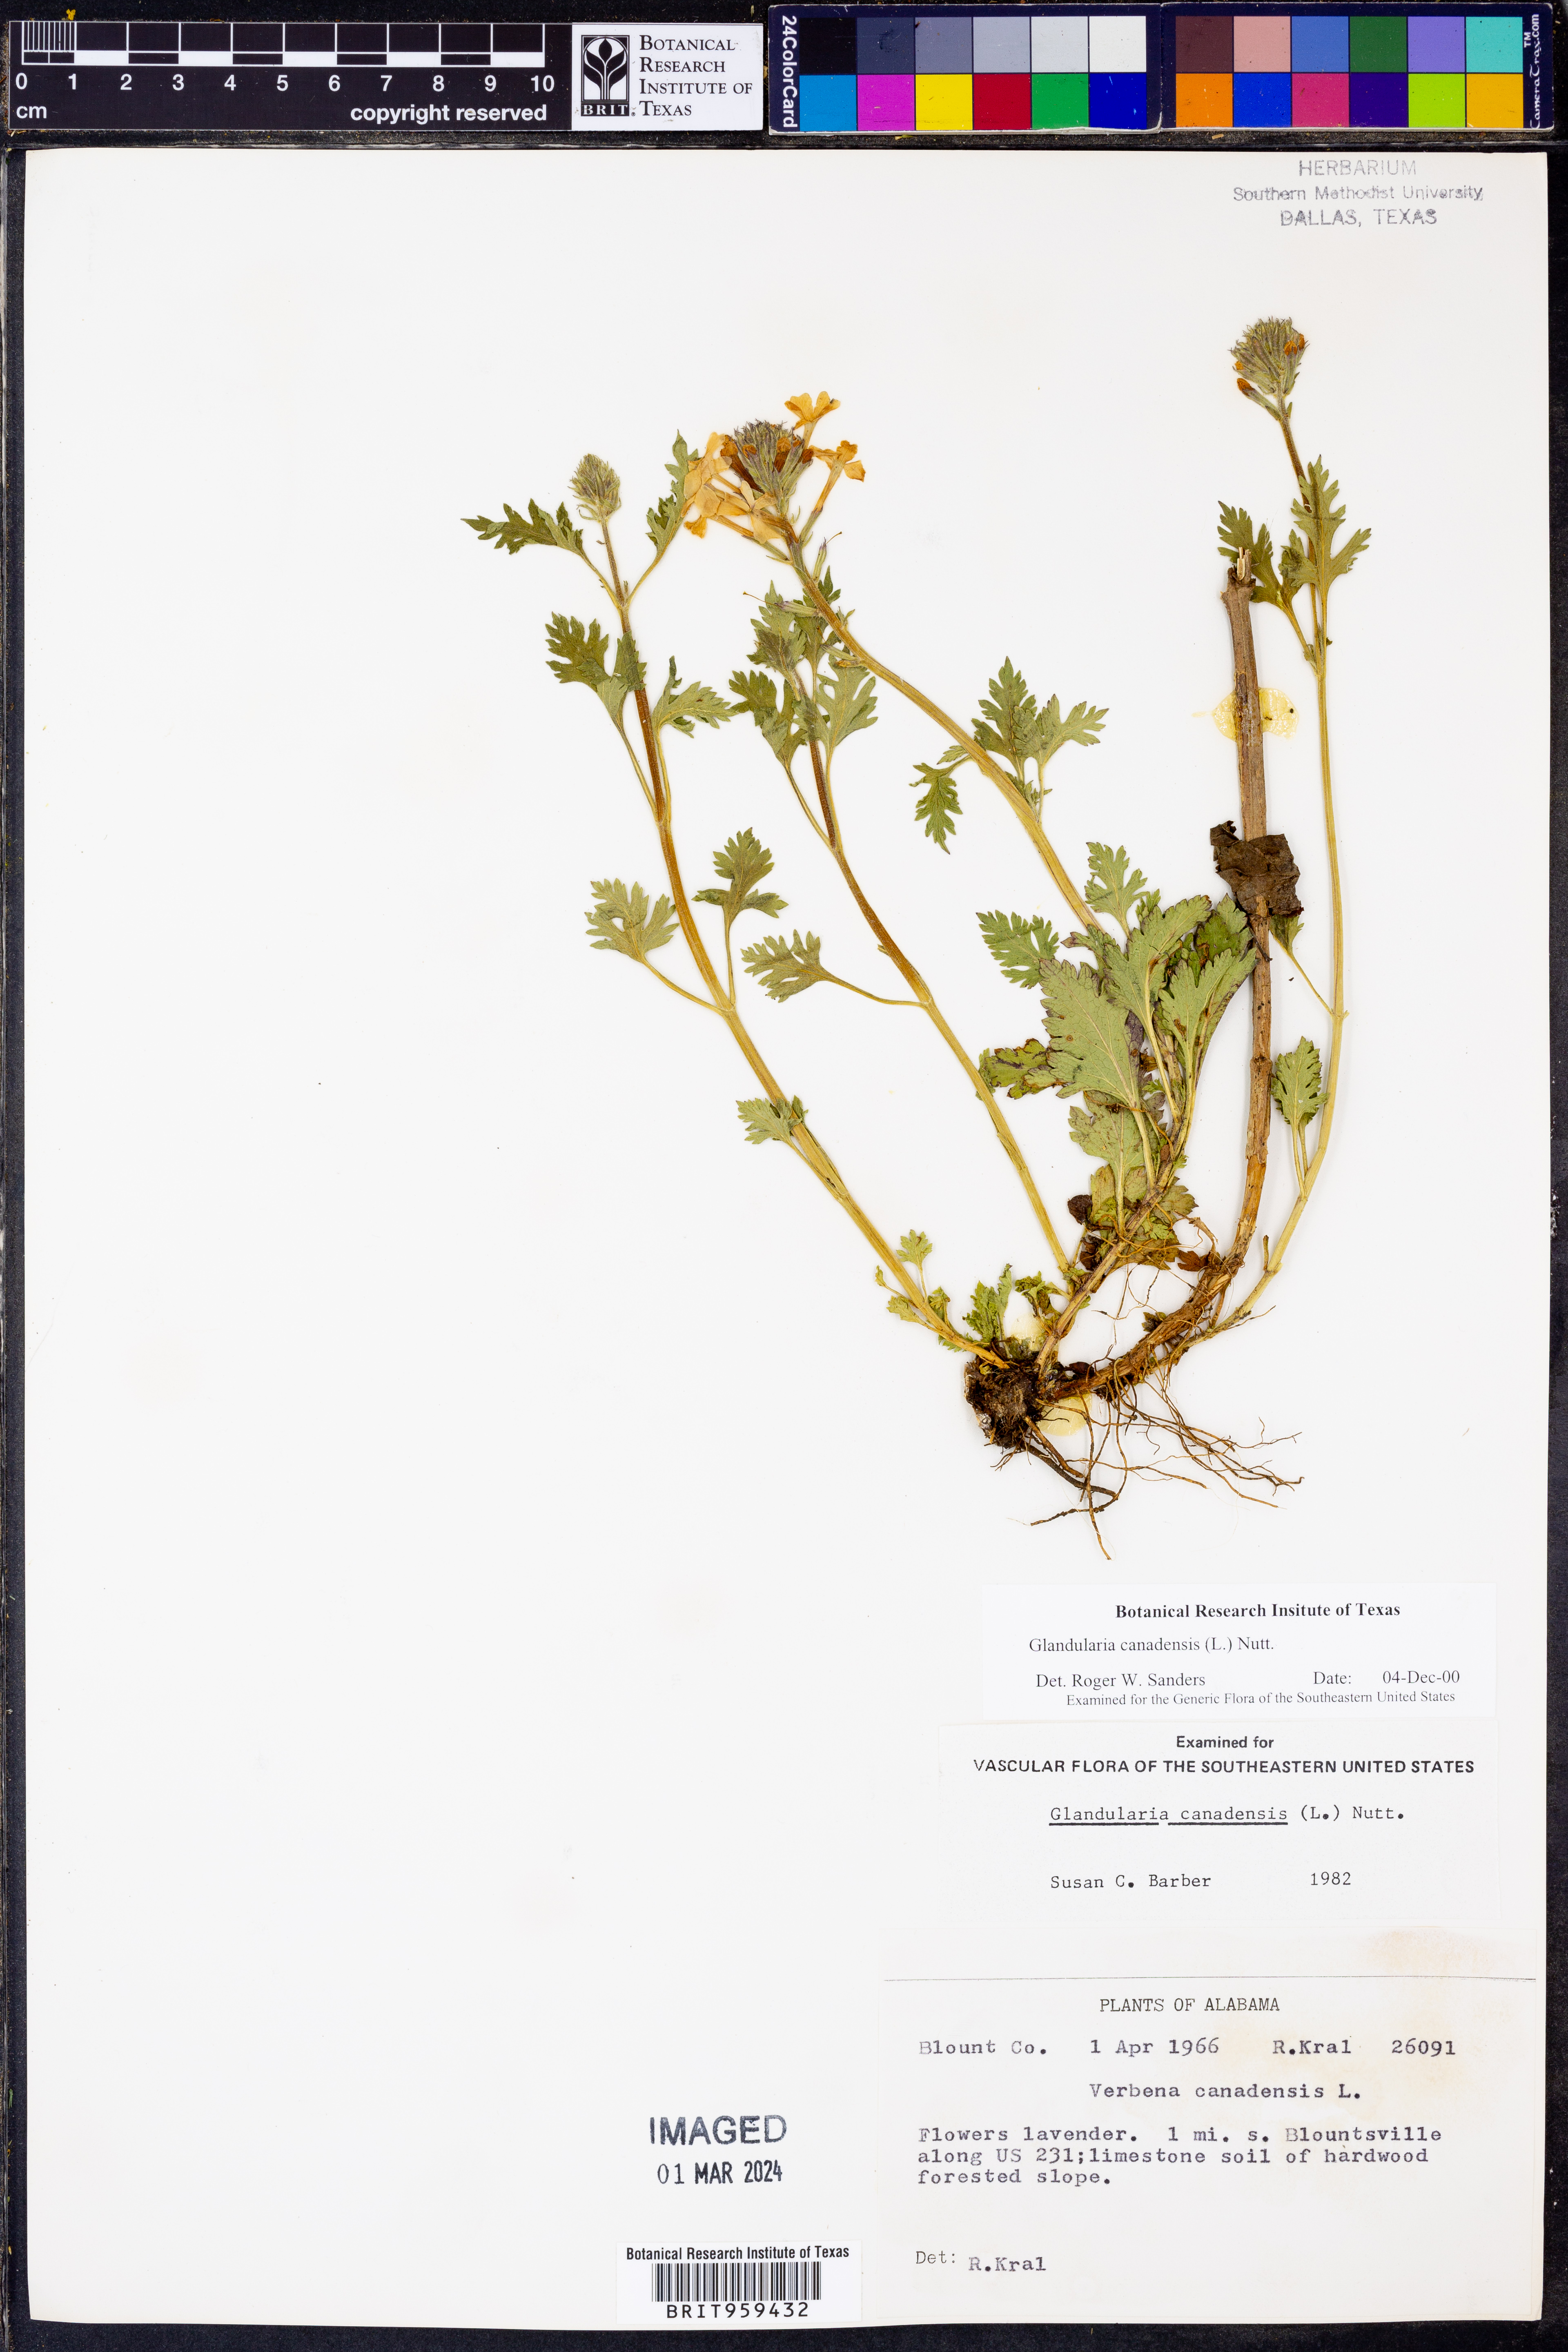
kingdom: Plantae
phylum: Tracheophyta
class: Magnoliopsida
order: Lamiales
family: Verbenaceae
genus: Verbena
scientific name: Verbena canadensis
